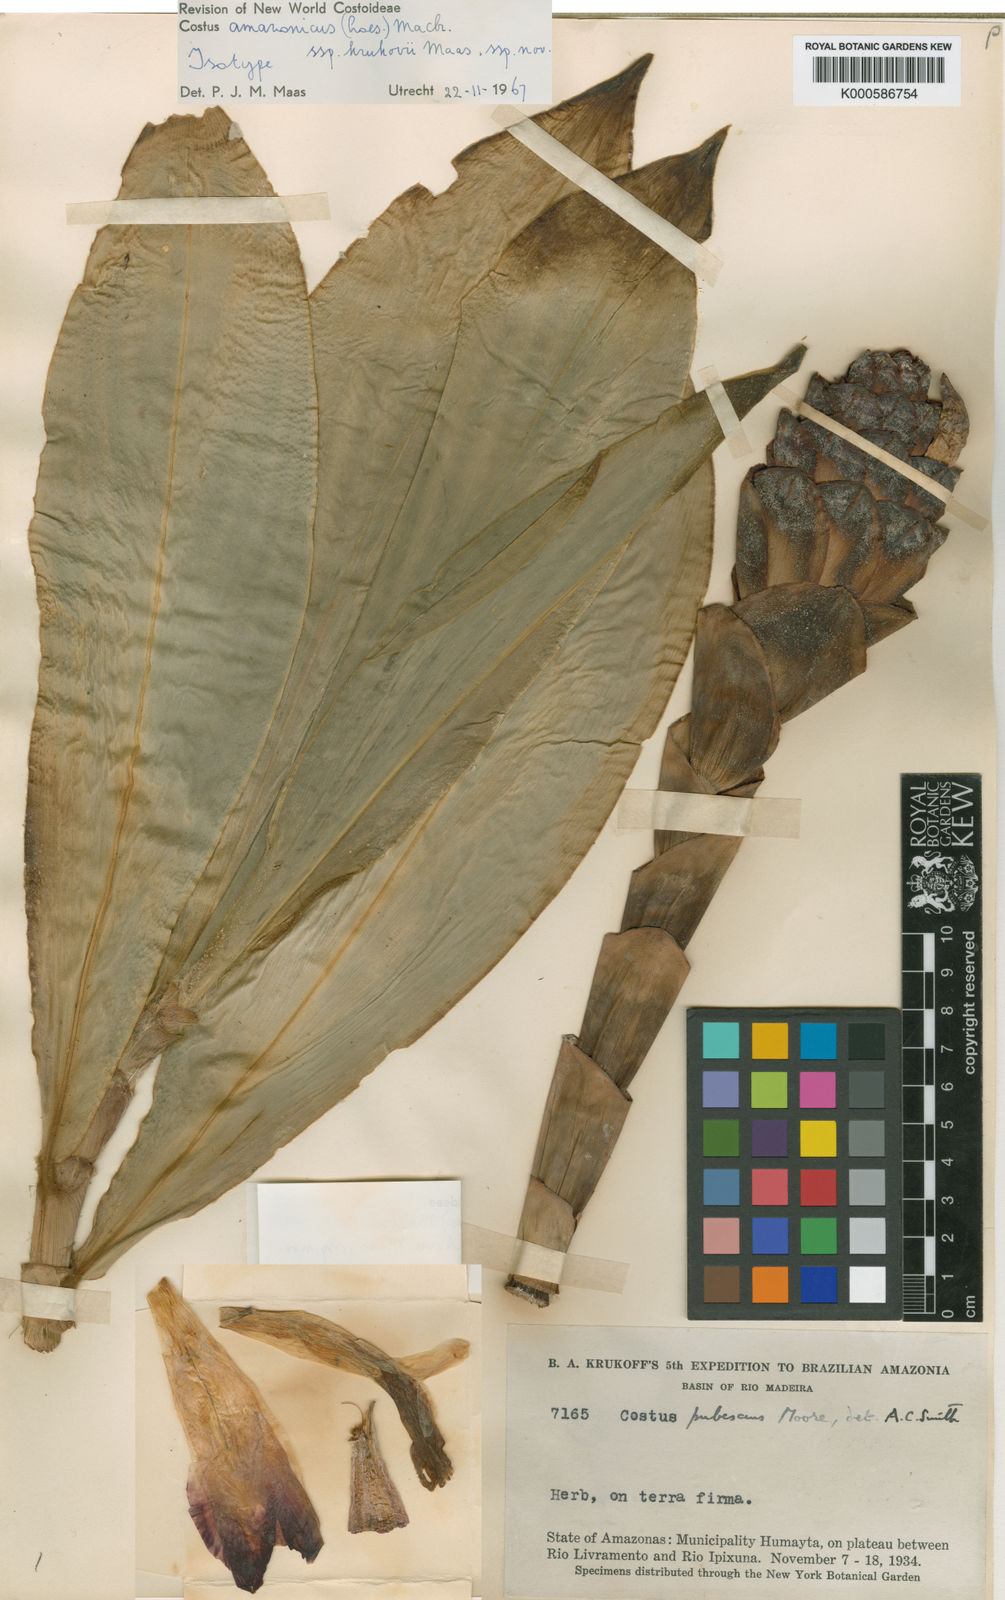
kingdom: Plantae
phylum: Tracheophyta
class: Liliopsida
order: Zingiberales
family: Costaceae
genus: Costus
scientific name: Costus amazonicus
